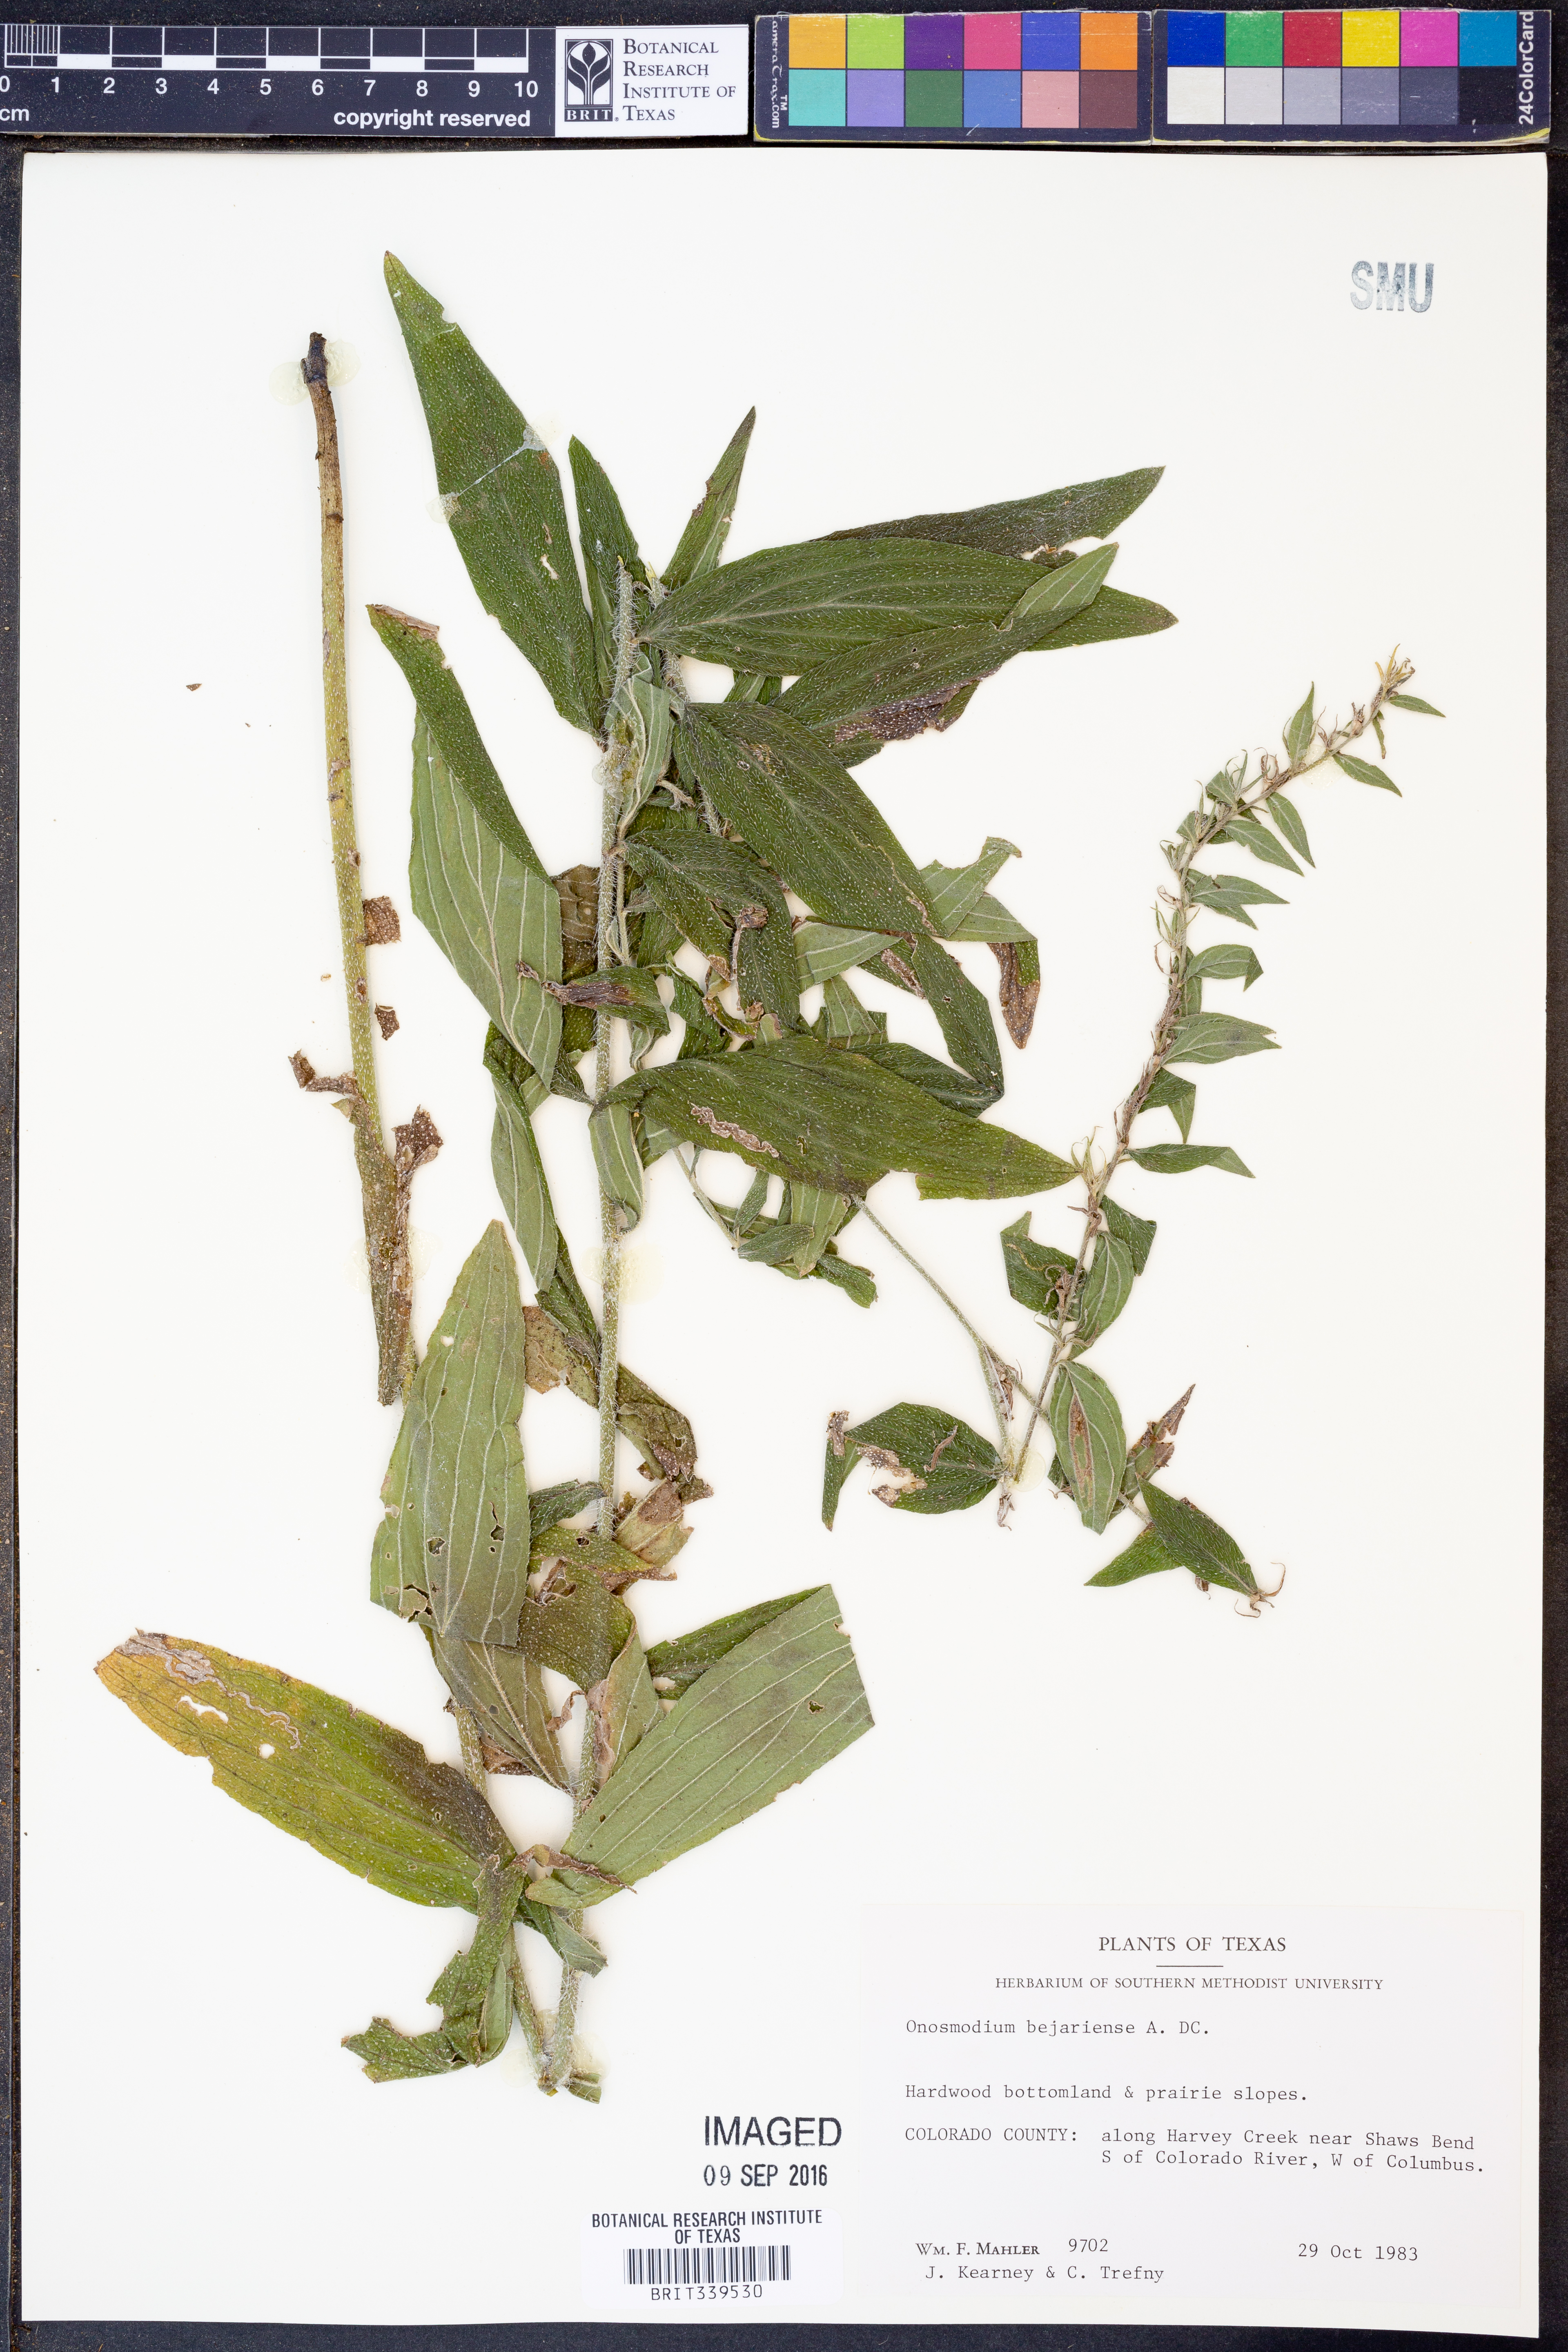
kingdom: Plantae
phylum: Tracheophyta
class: Magnoliopsida
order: Boraginales
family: Boraginaceae
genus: Lithospermum
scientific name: Lithospermum molle
